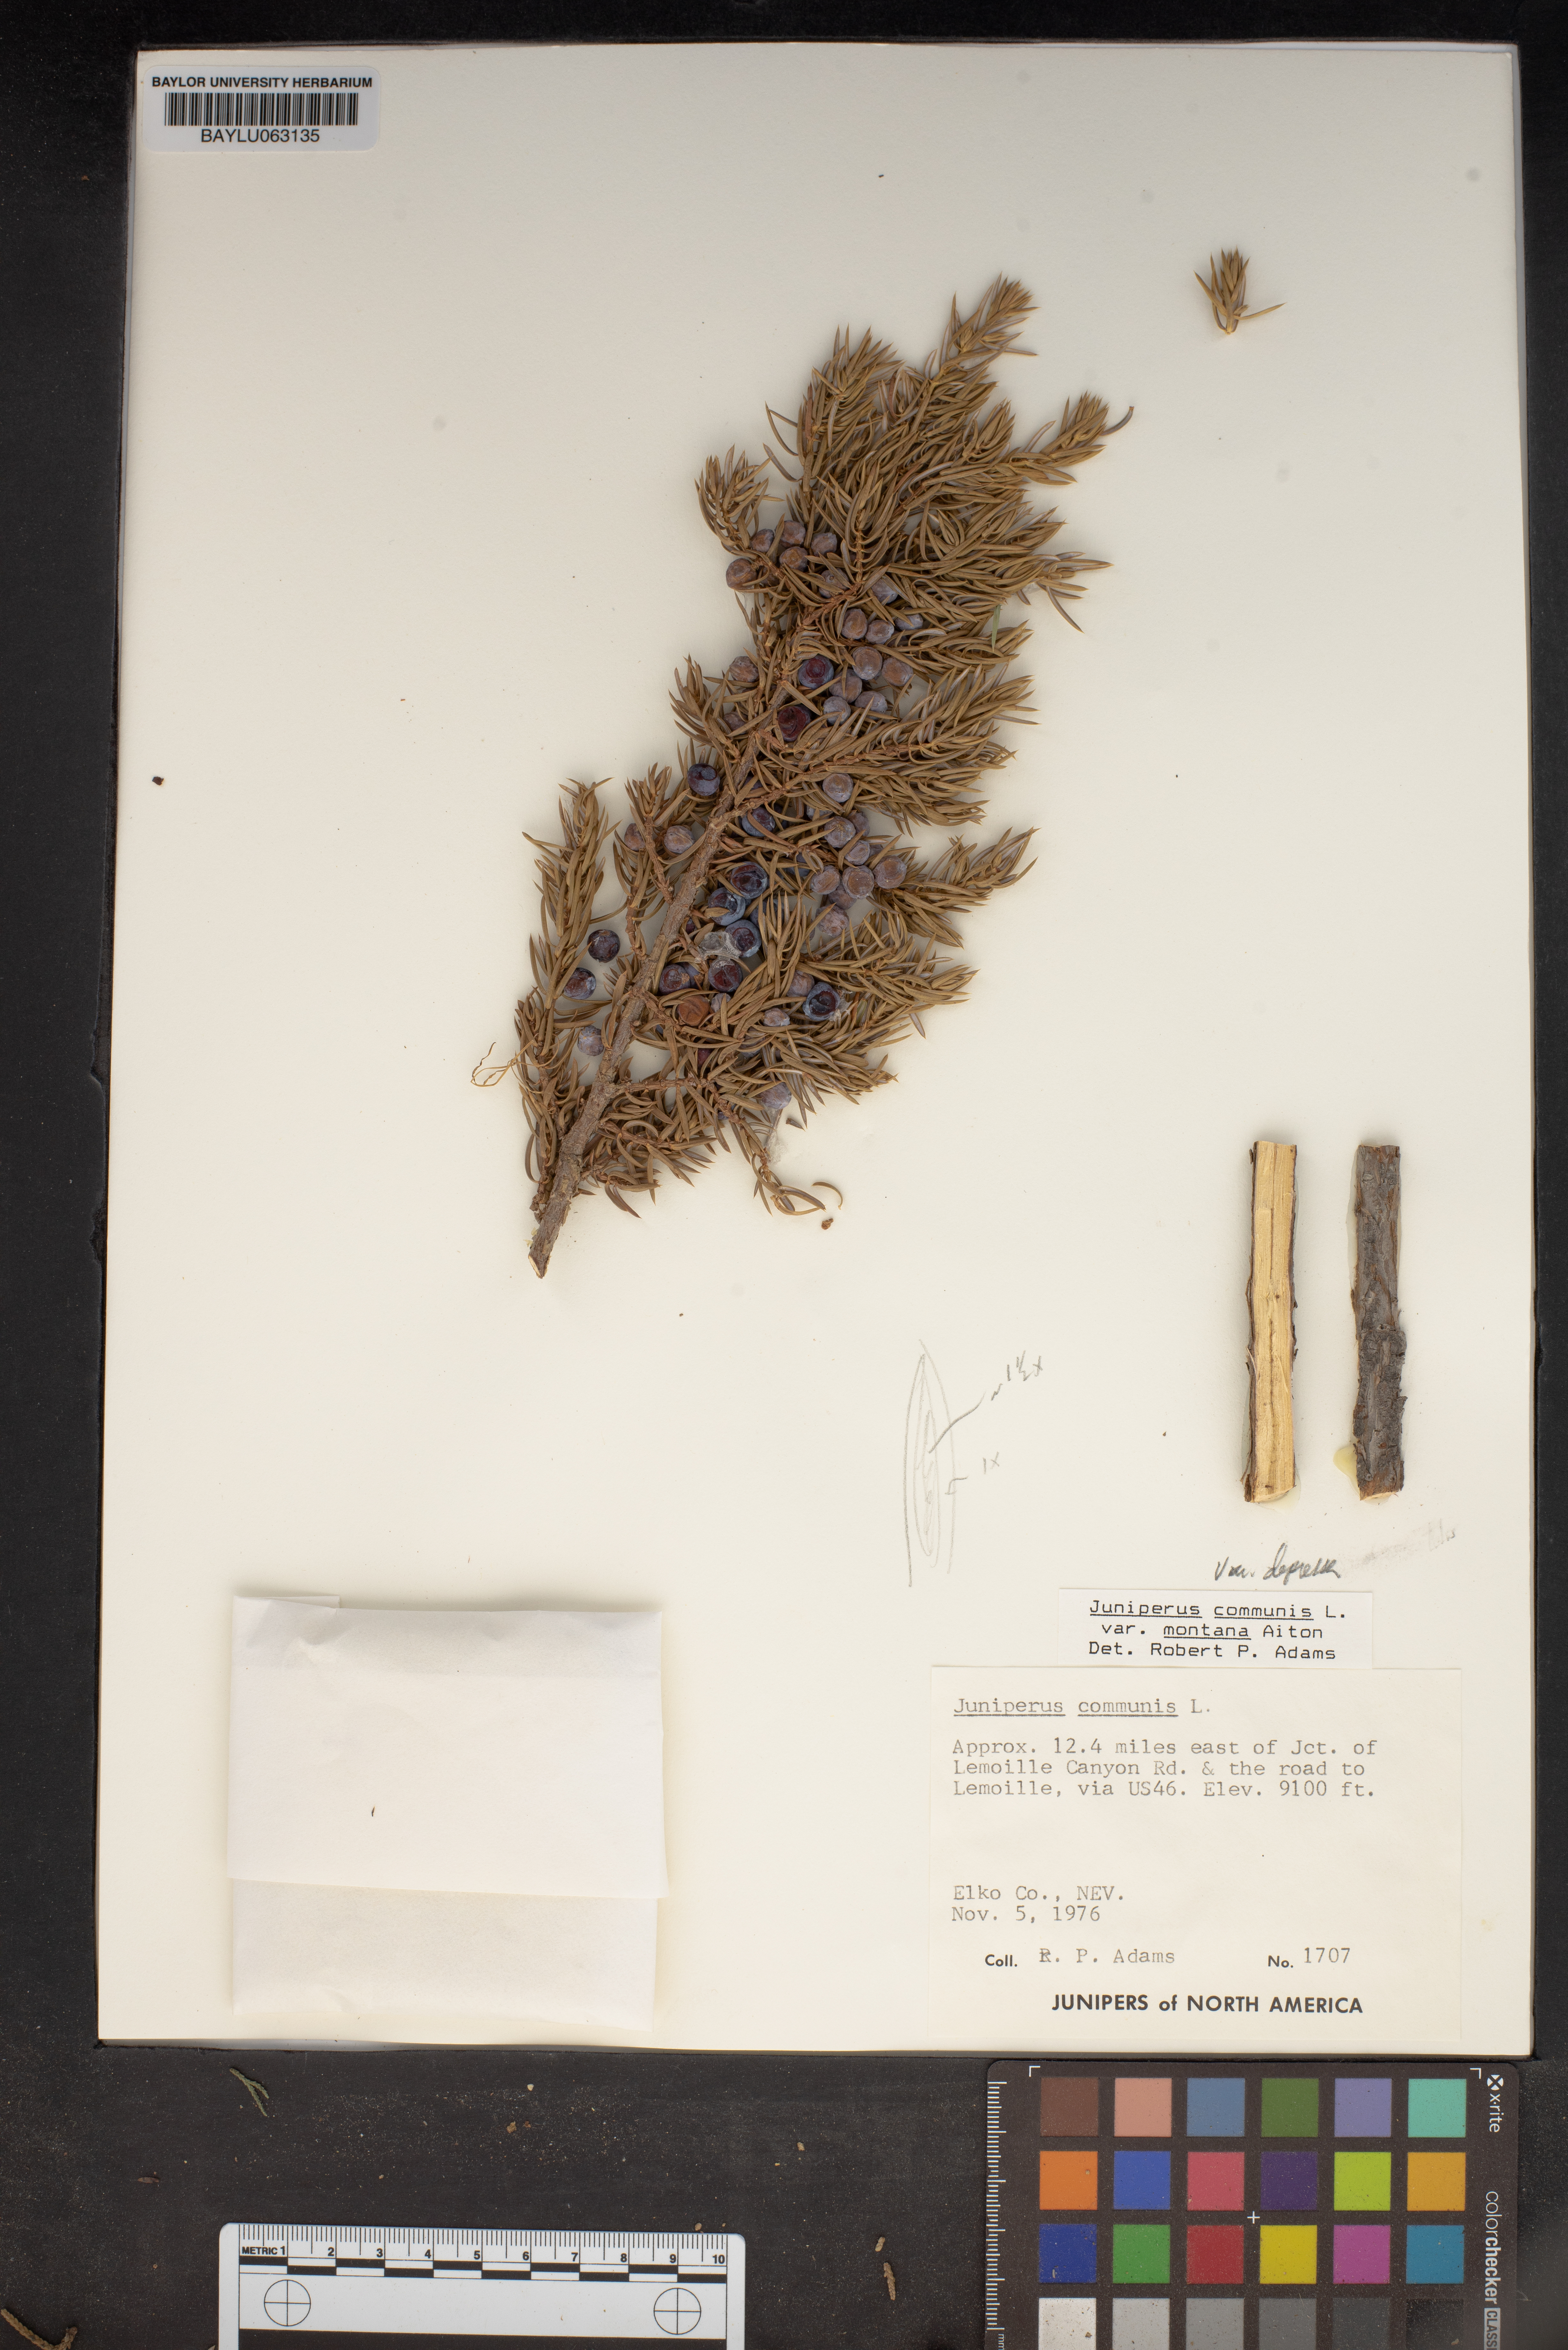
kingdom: Plantae
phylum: Tracheophyta
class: Pinopsida
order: Pinales
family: Cupressaceae
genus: Juniperus
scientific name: Juniperus communis
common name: Common juniper
